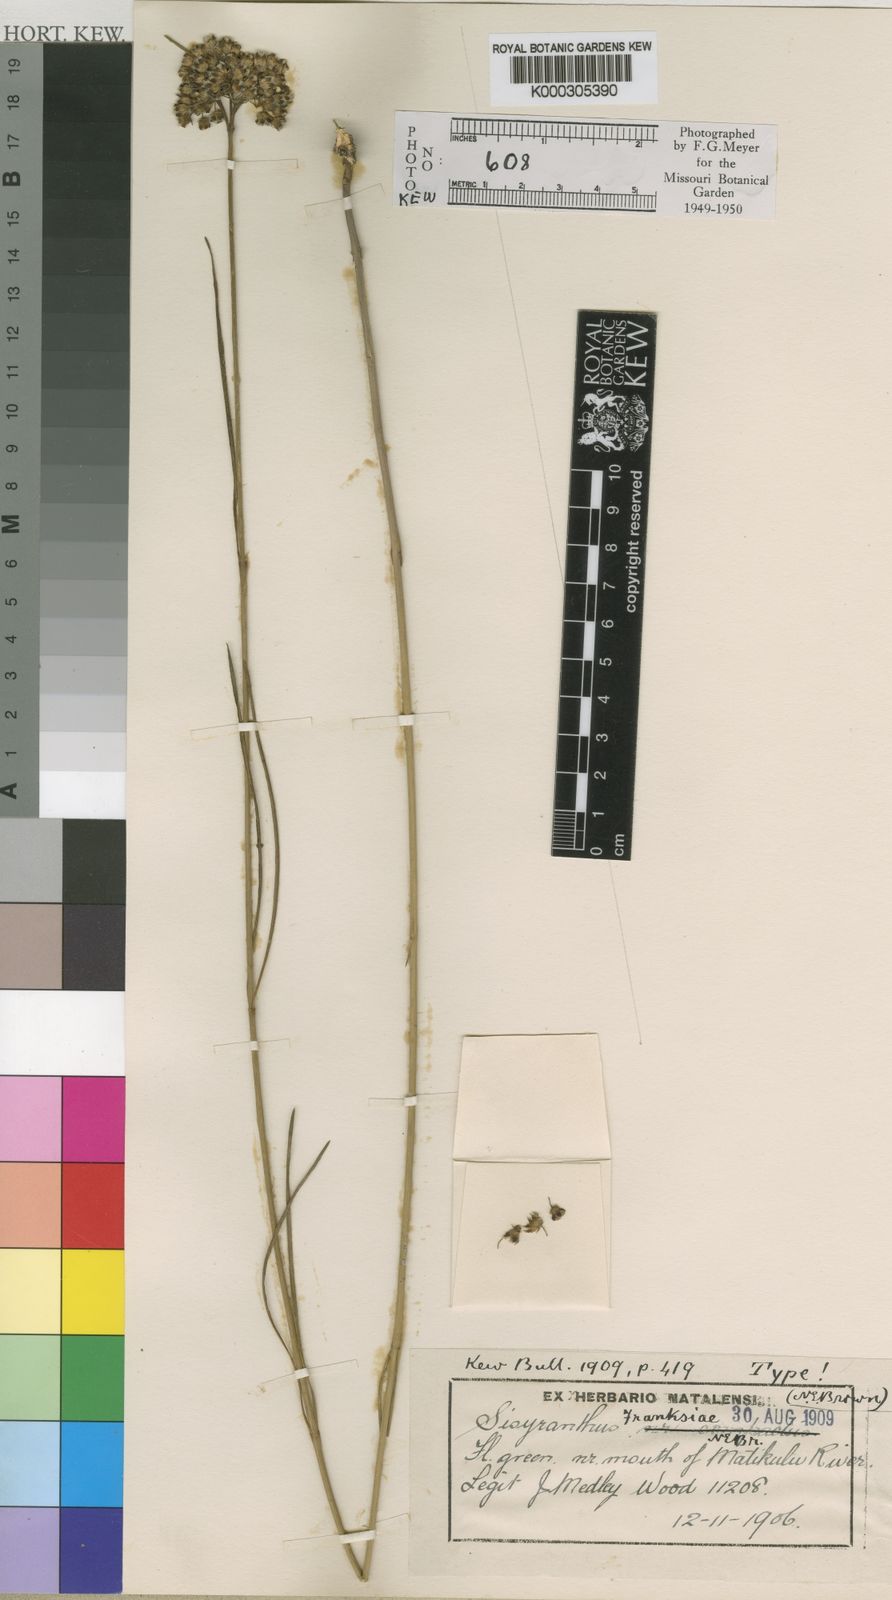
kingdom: Plantae
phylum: Tracheophyta
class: Magnoliopsida
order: Gentianales
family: Apocynaceae
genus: Sisyranthus
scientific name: Sisyranthus franksiae
